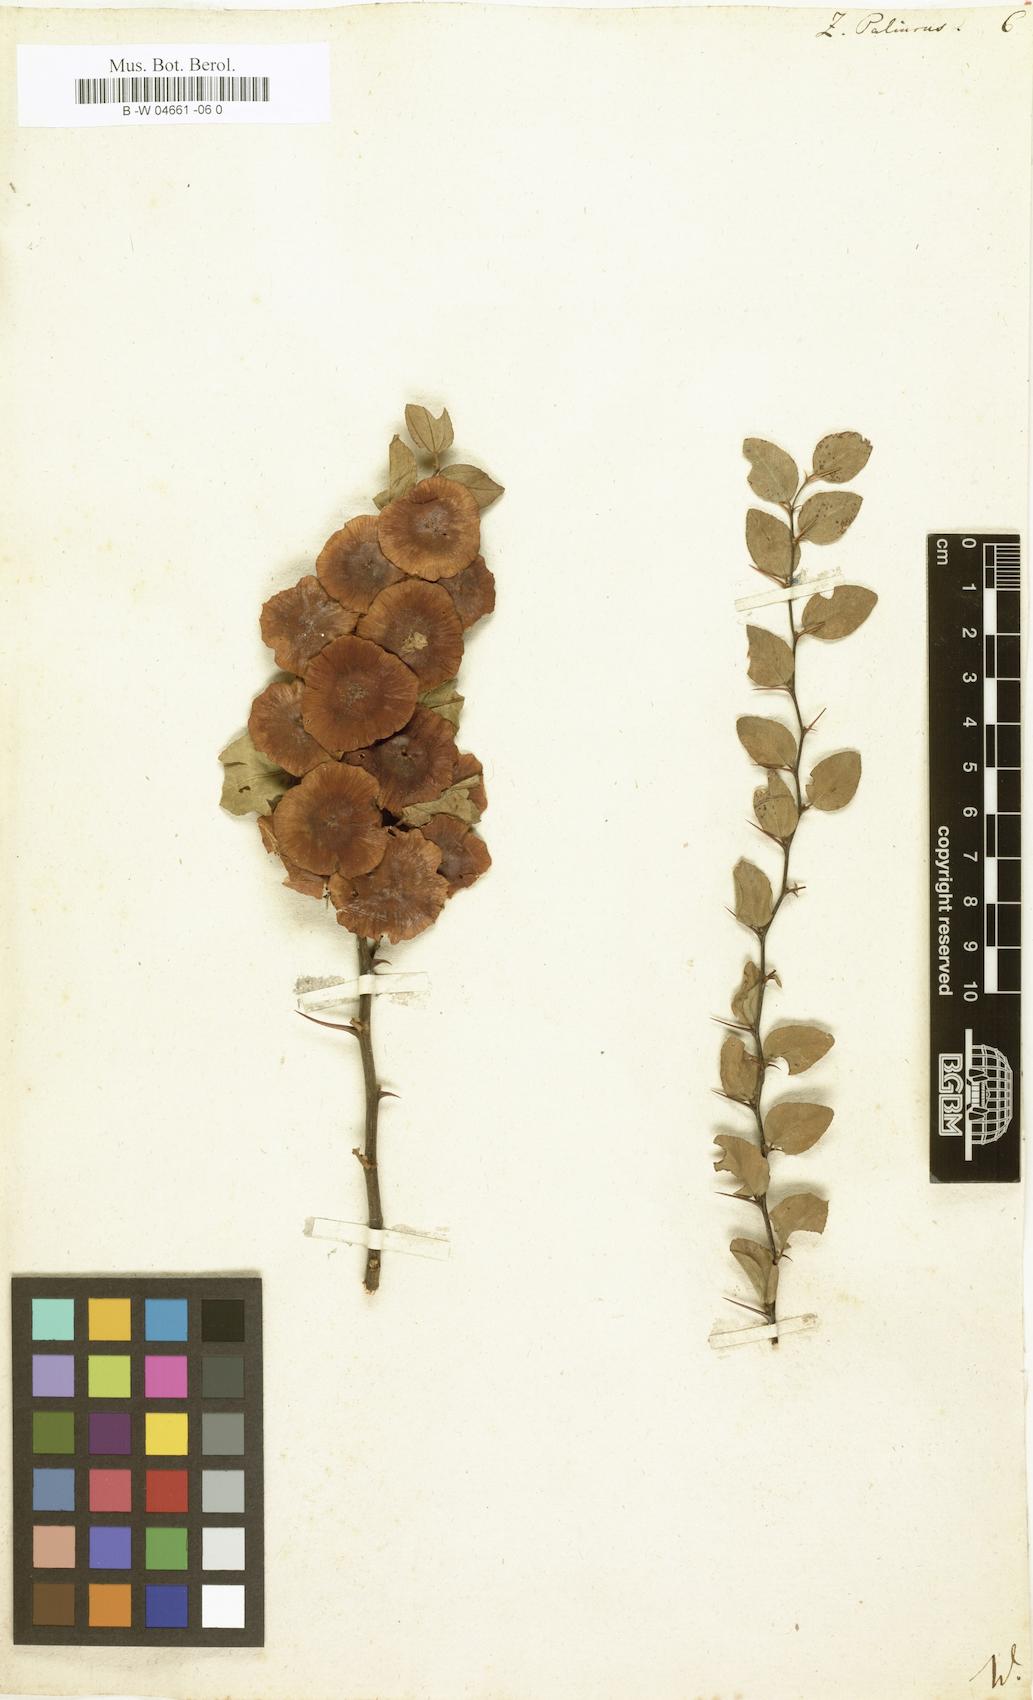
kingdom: Plantae
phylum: Tracheophyta
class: Magnoliopsida
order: Rosales
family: Rhamnaceae
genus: Paliurus
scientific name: Paliurus spina-christi
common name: Jeruselem thorn
